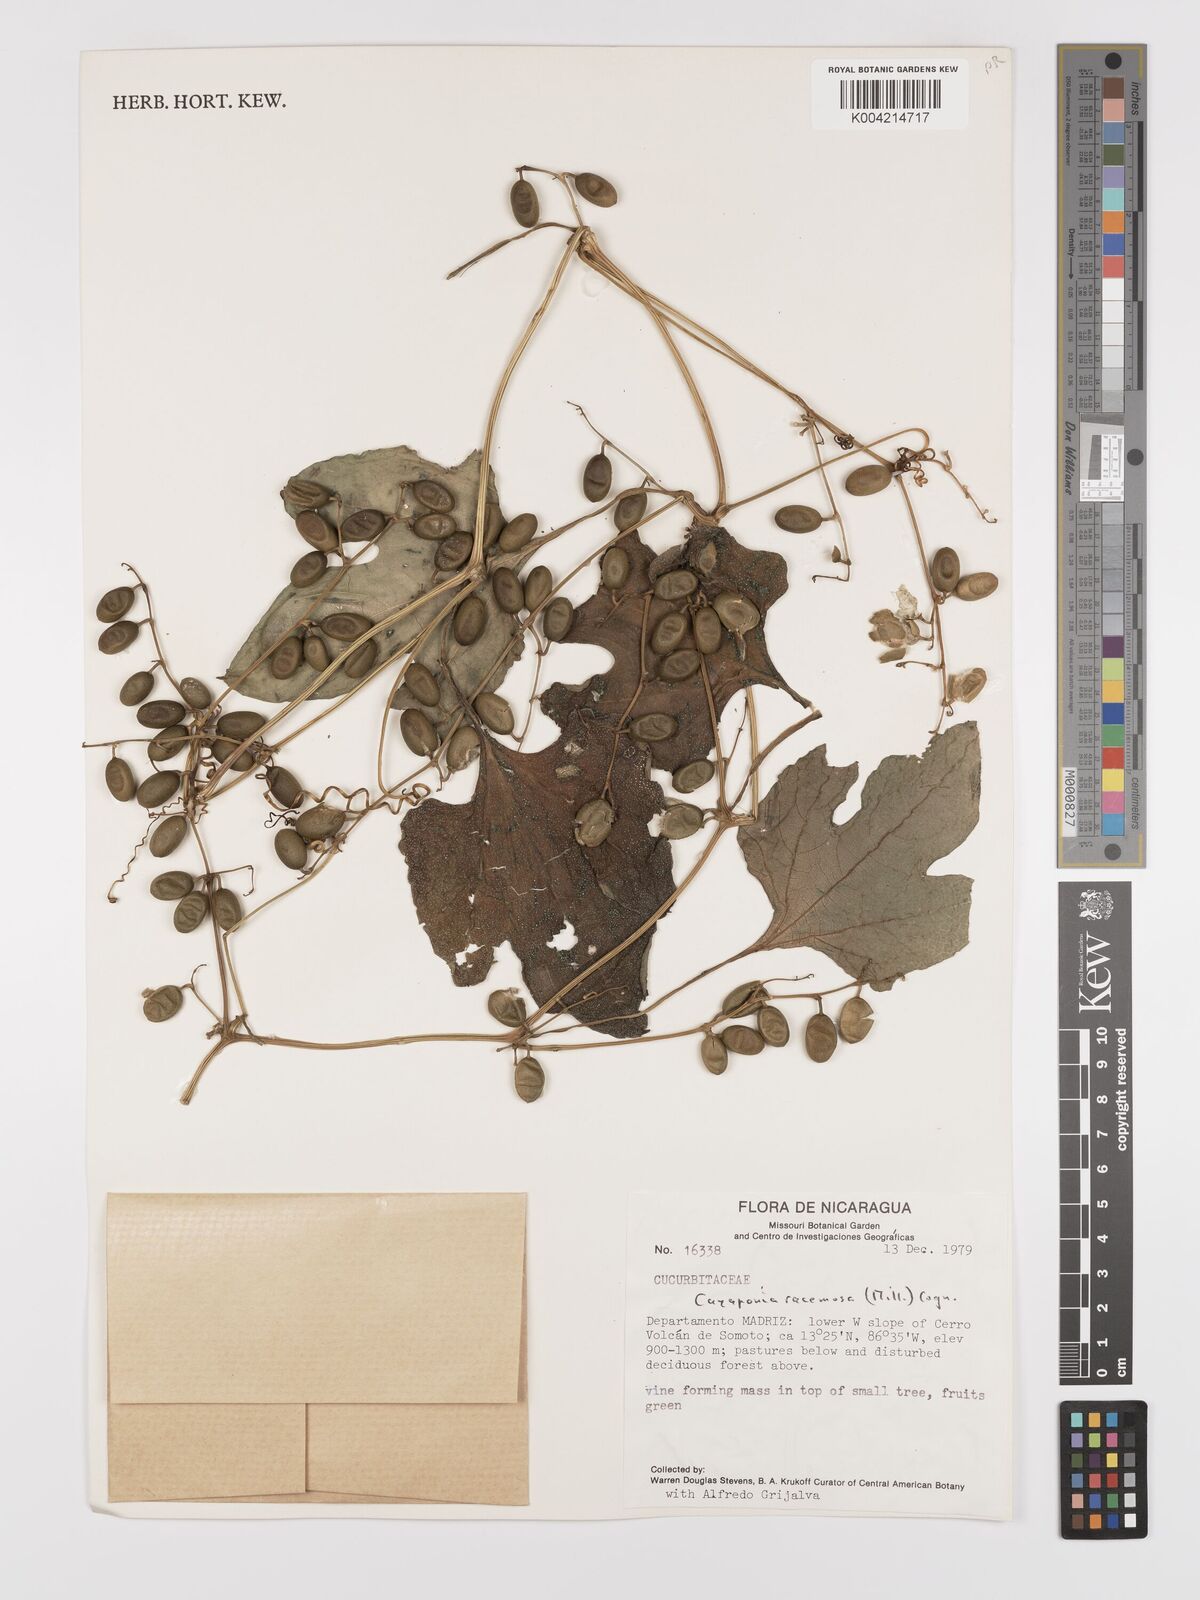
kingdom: Plantae
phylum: Tracheophyta
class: Magnoliopsida
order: Cucurbitales
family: Cucurbitaceae
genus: Cayaponia
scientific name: Cayaponia racemosa
